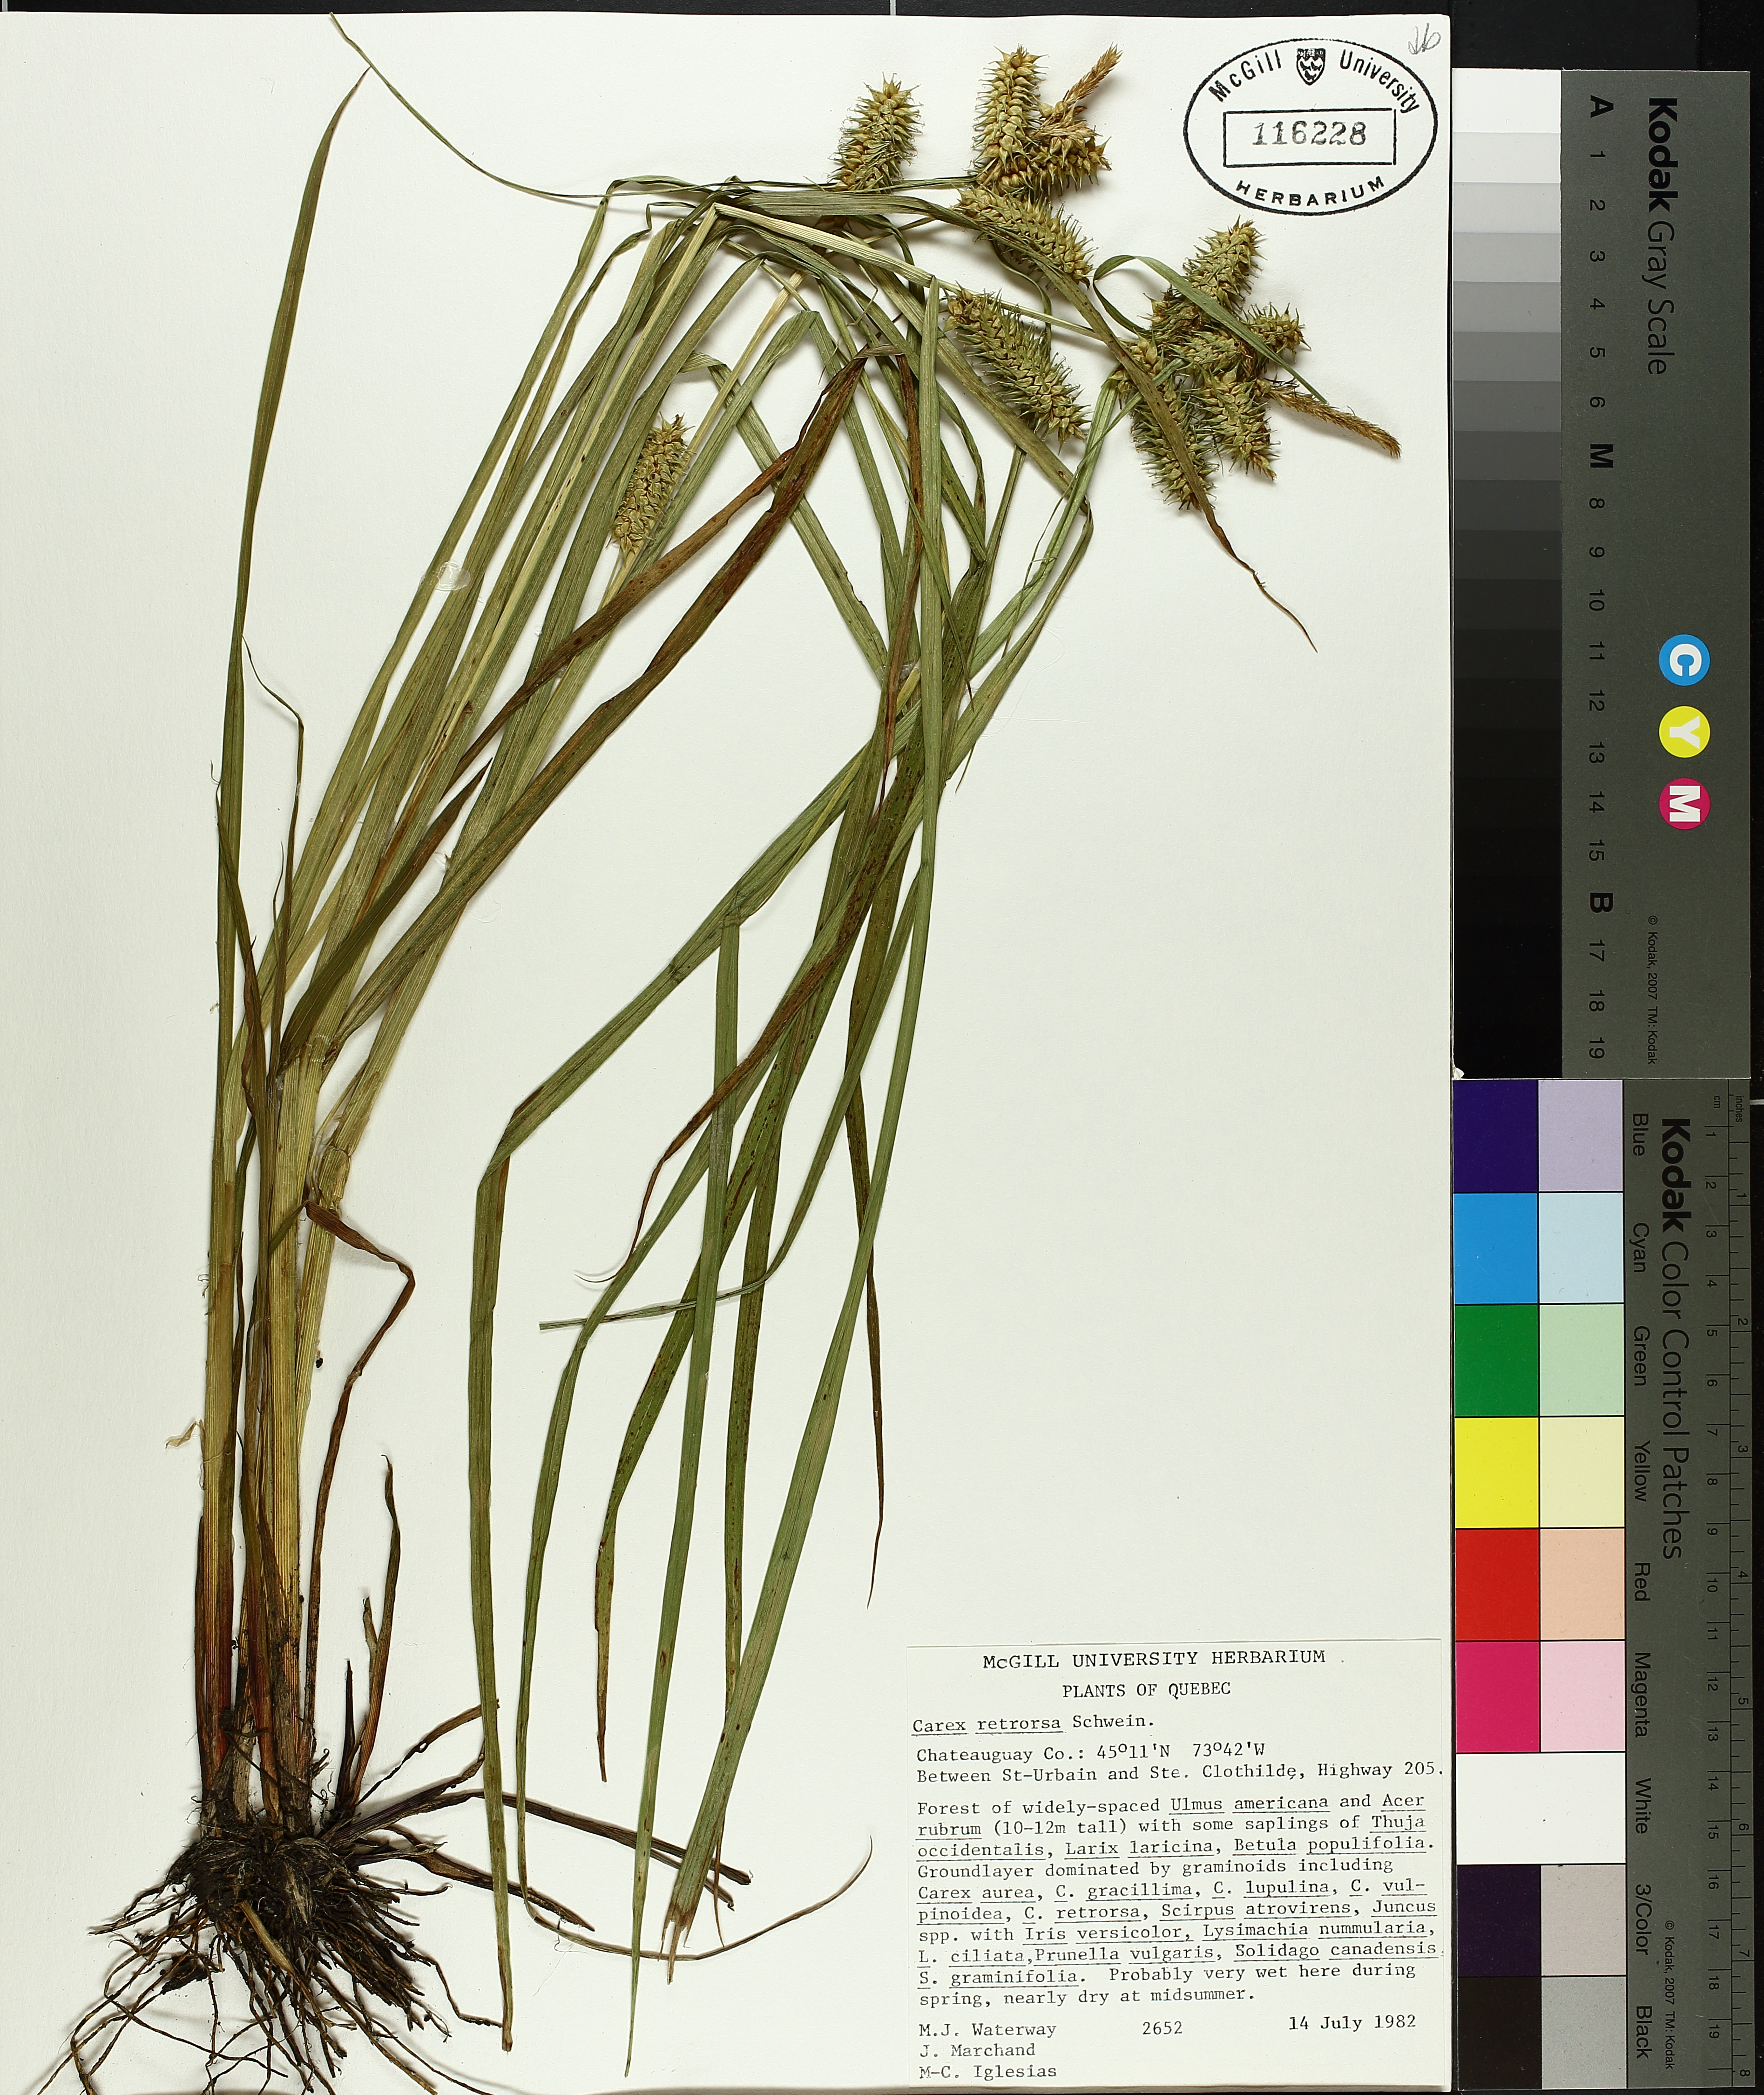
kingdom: Plantae
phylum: Tracheophyta
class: Liliopsida
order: Poales
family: Cyperaceae
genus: Carex
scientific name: Carex retrorsa
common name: Knot-sheath sedge
